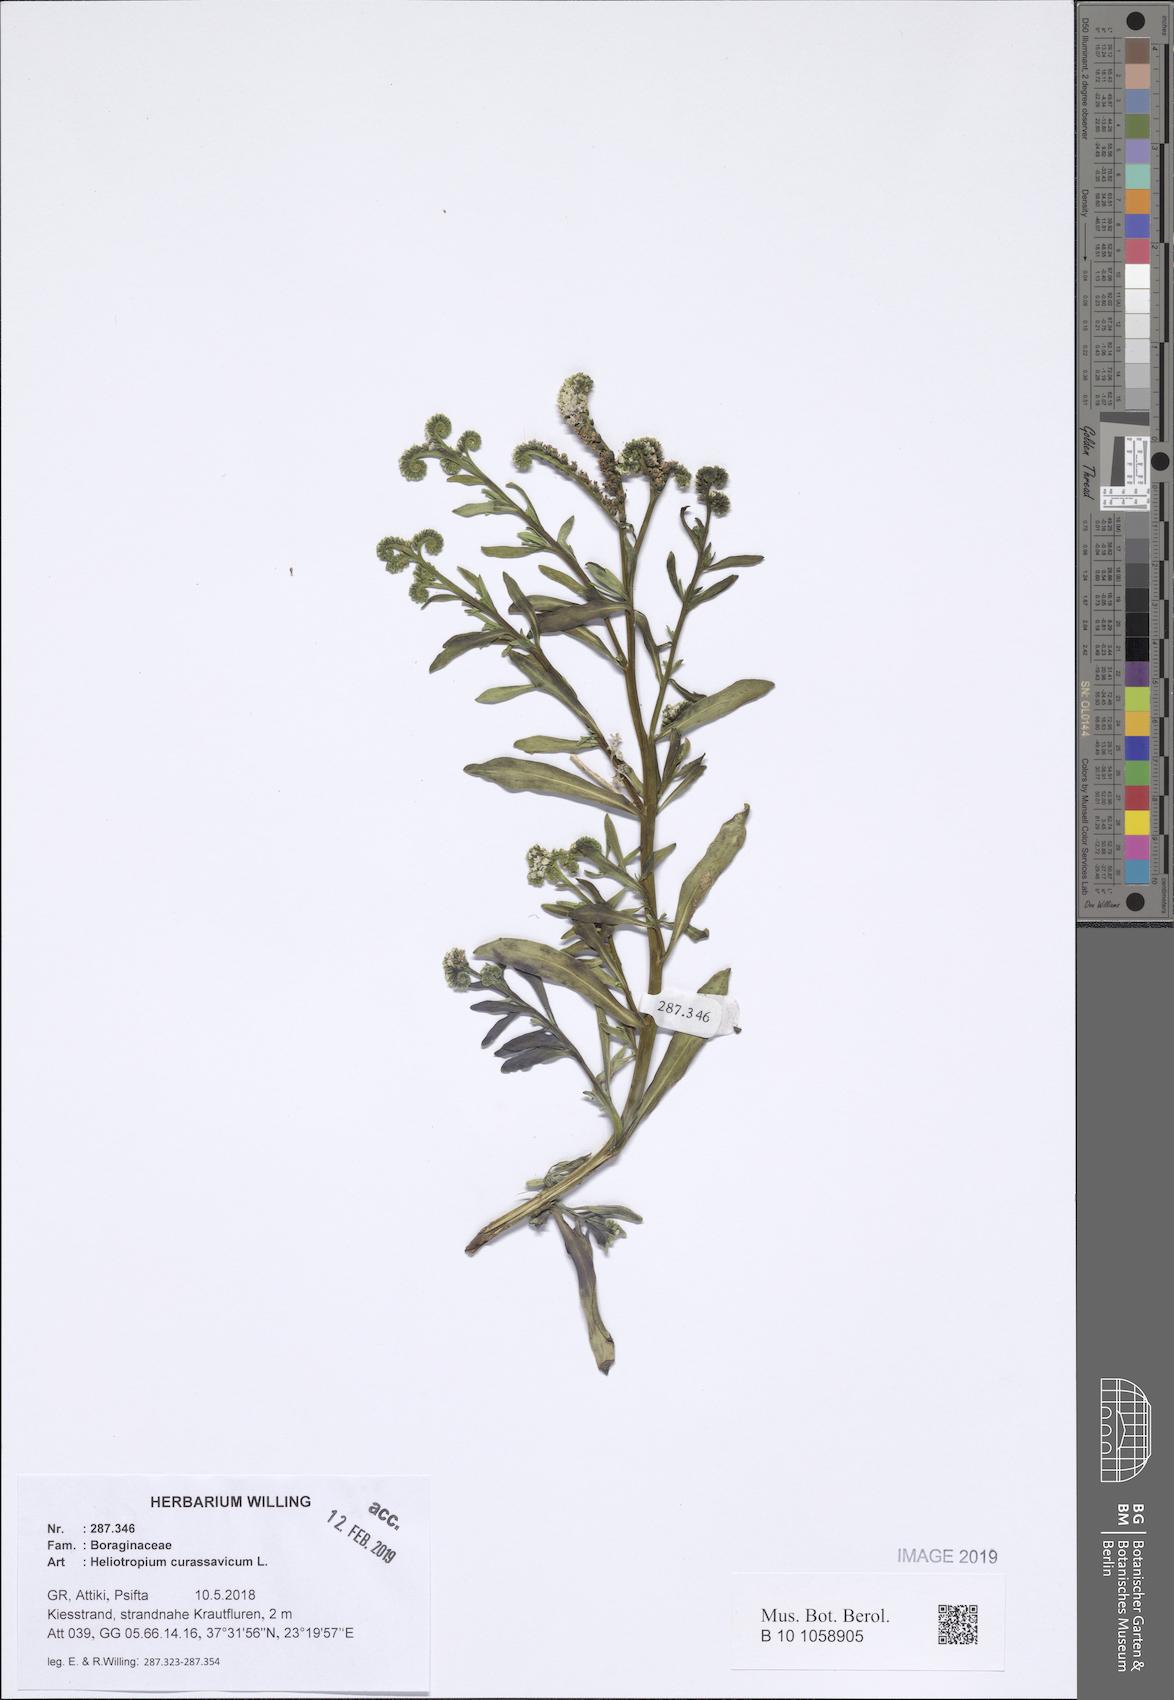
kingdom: Plantae
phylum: Tracheophyta
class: Magnoliopsida
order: Boraginales
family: Heliotropiaceae
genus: Heliotropium
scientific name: Heliotropium curassavicum
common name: Seaside heliotrope
